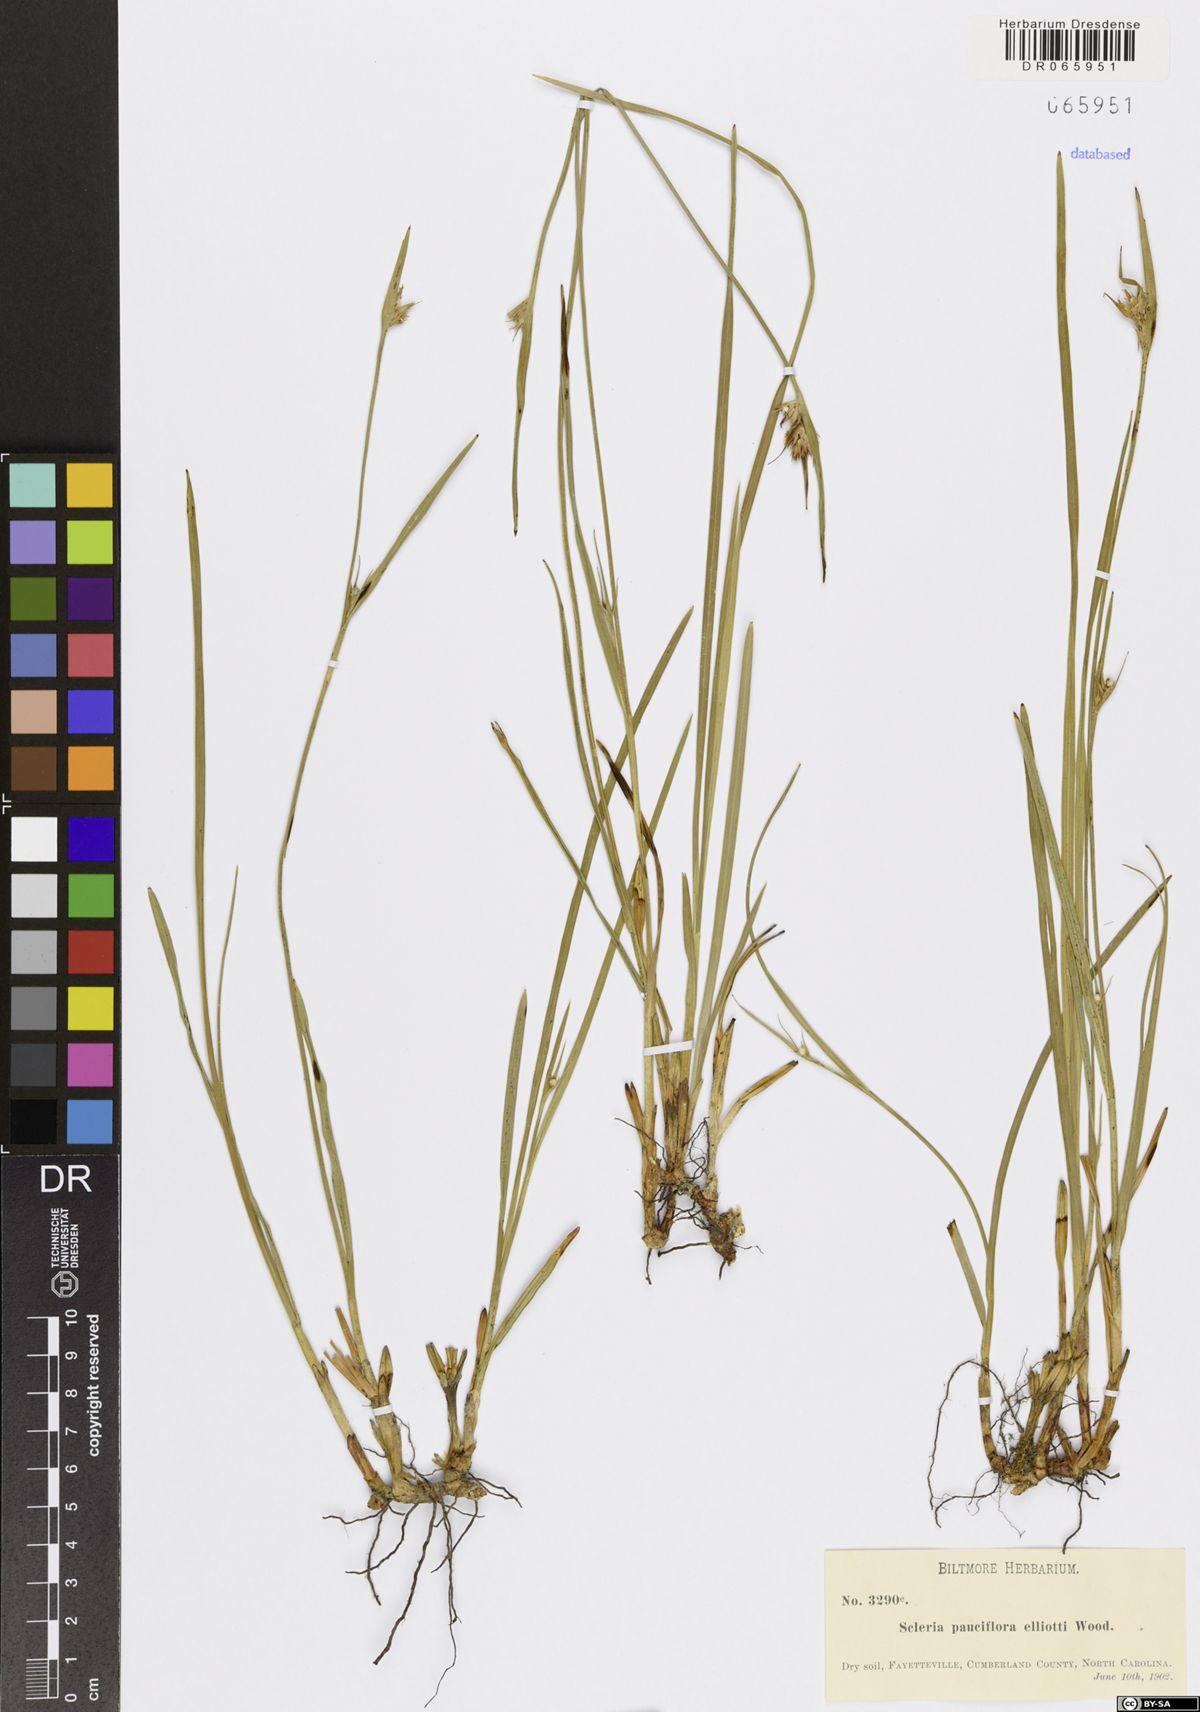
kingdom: Plantae
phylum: Tracheophyta
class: Liliopsida
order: Poales
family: Cyperaceae
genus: Scleria
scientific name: Scleria pauciflora
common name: Few-flowered nutrush
